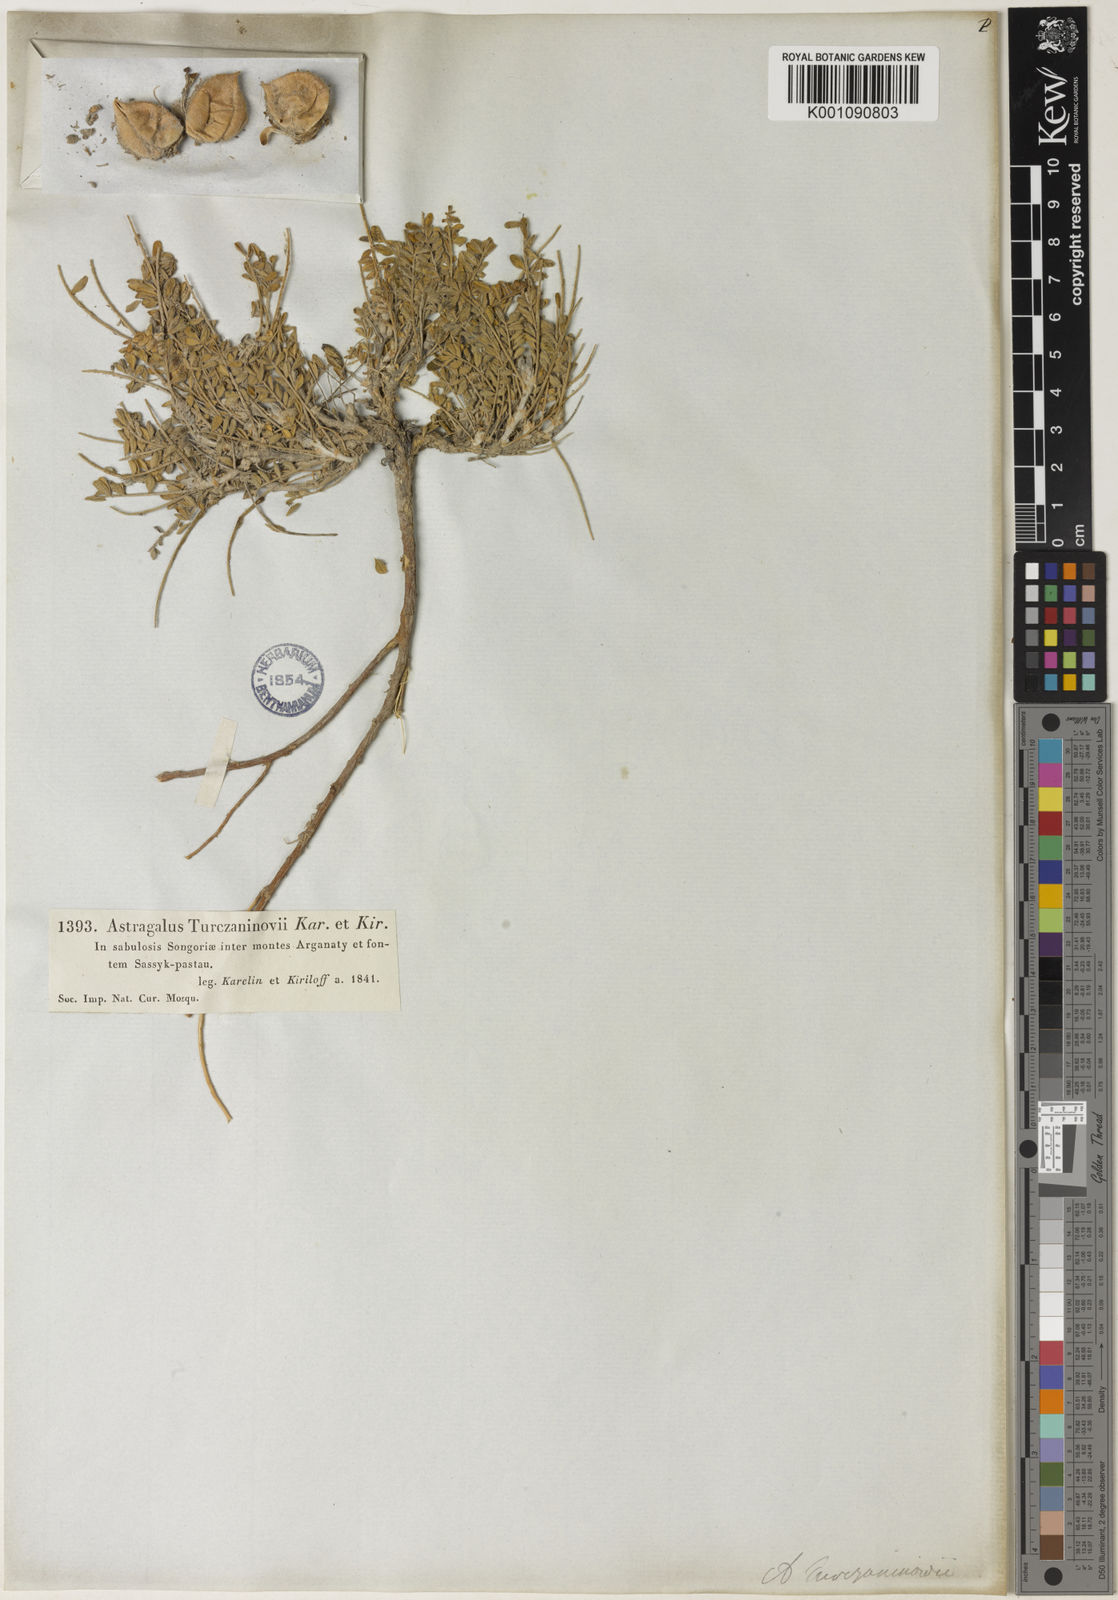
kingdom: Plantae
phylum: Tracheophyta
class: Magnoliopsida
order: Fabales
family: Fabaceae
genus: Astragalus
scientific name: Astragalus
